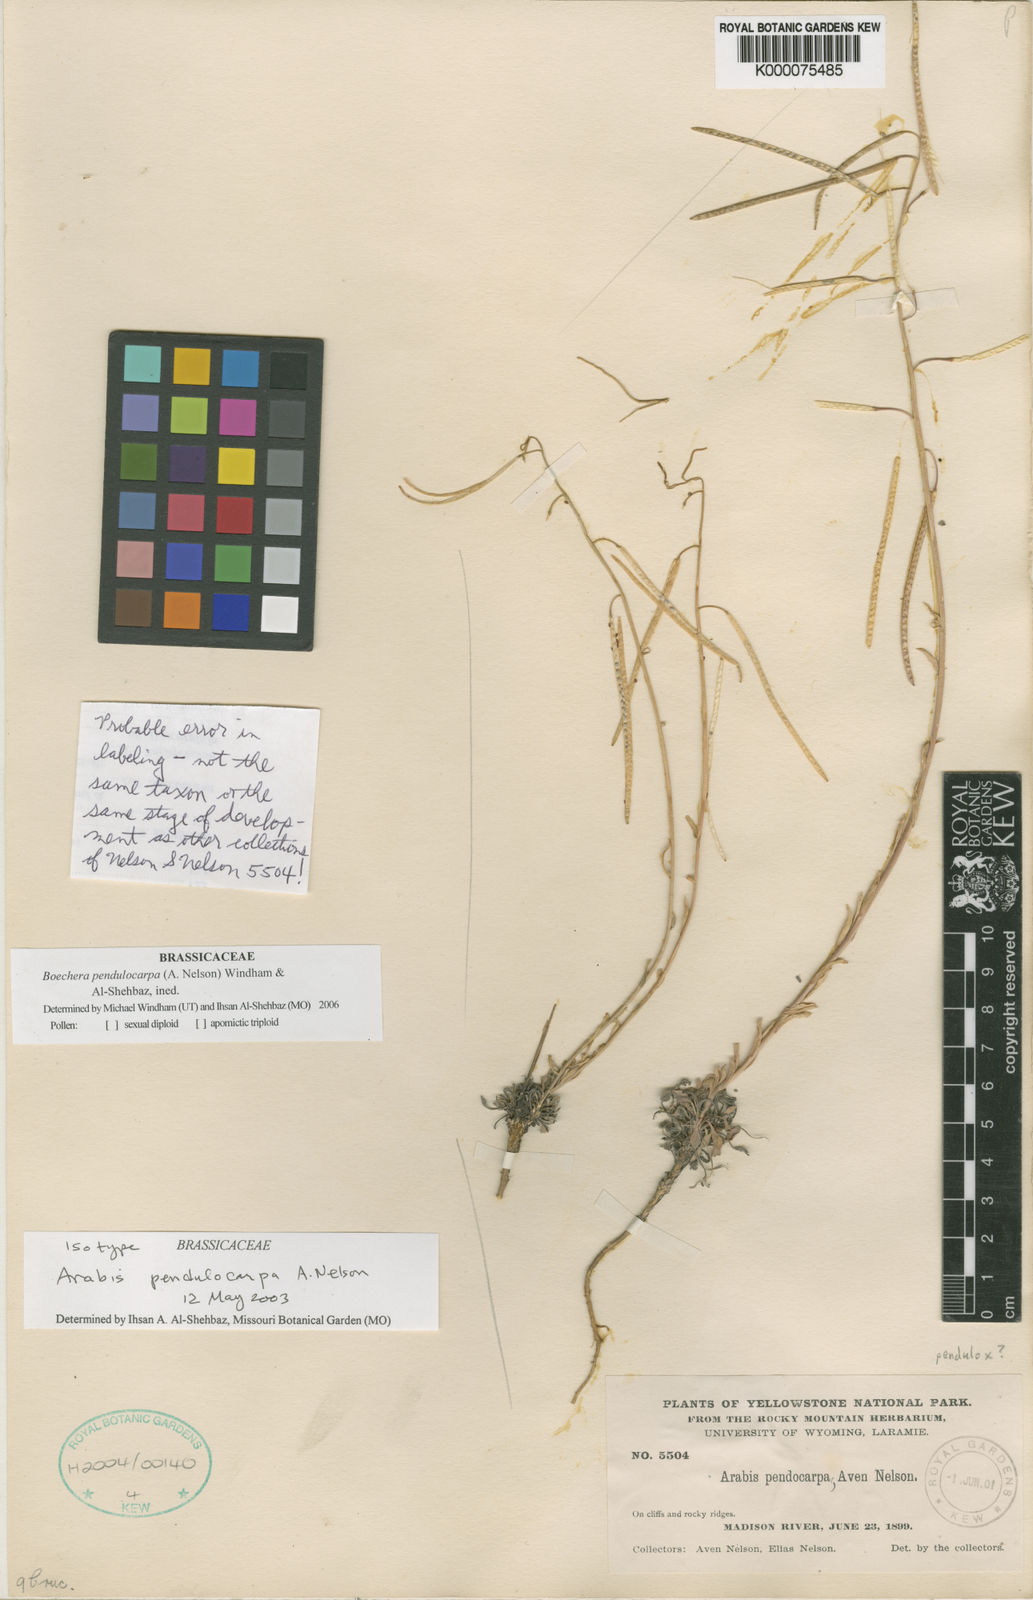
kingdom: Plantae
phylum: Tracheophyta
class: Magnoliopsida
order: Brassicales
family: Brassicaceae
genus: Boechera
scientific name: Boechera pendulocarpa
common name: Dangle-pod rockcress
